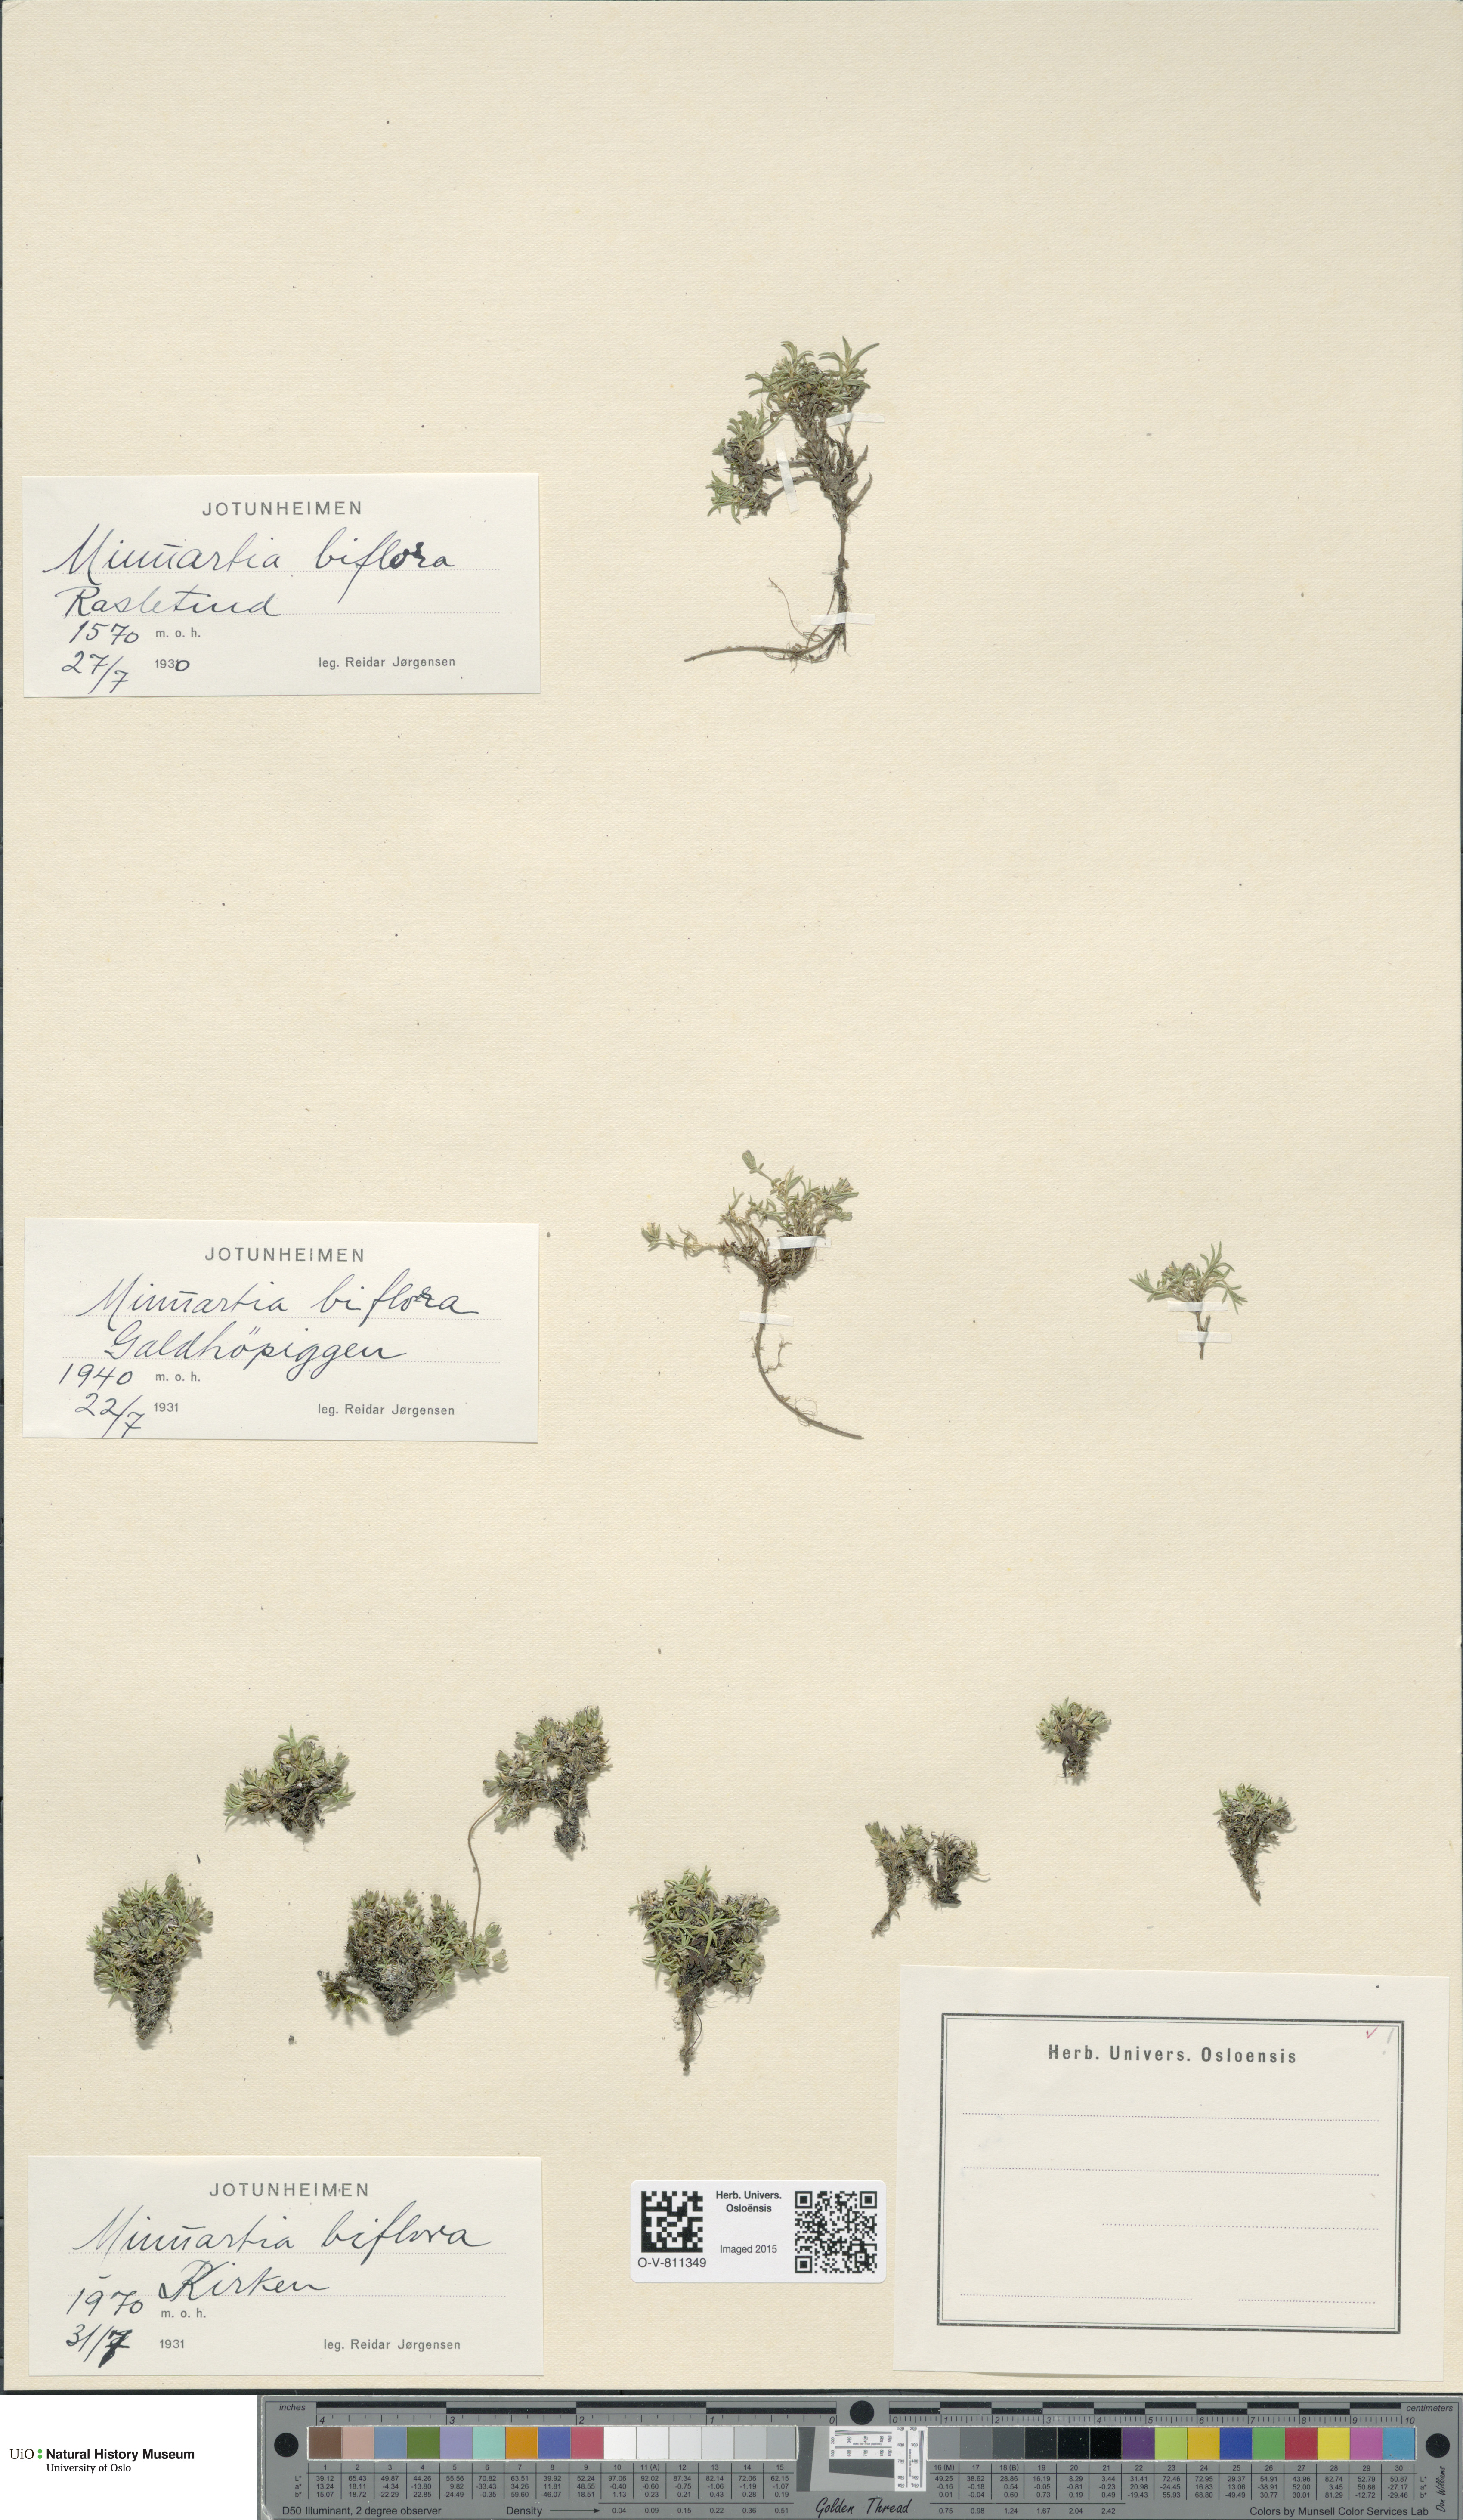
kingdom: Plantae
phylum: Tracheophyta
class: Magnoliopsida
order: Caryophyllales
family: Caryophyllaceae
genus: Cherleria
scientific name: Cherleria biflora
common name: Mountain sandwort
